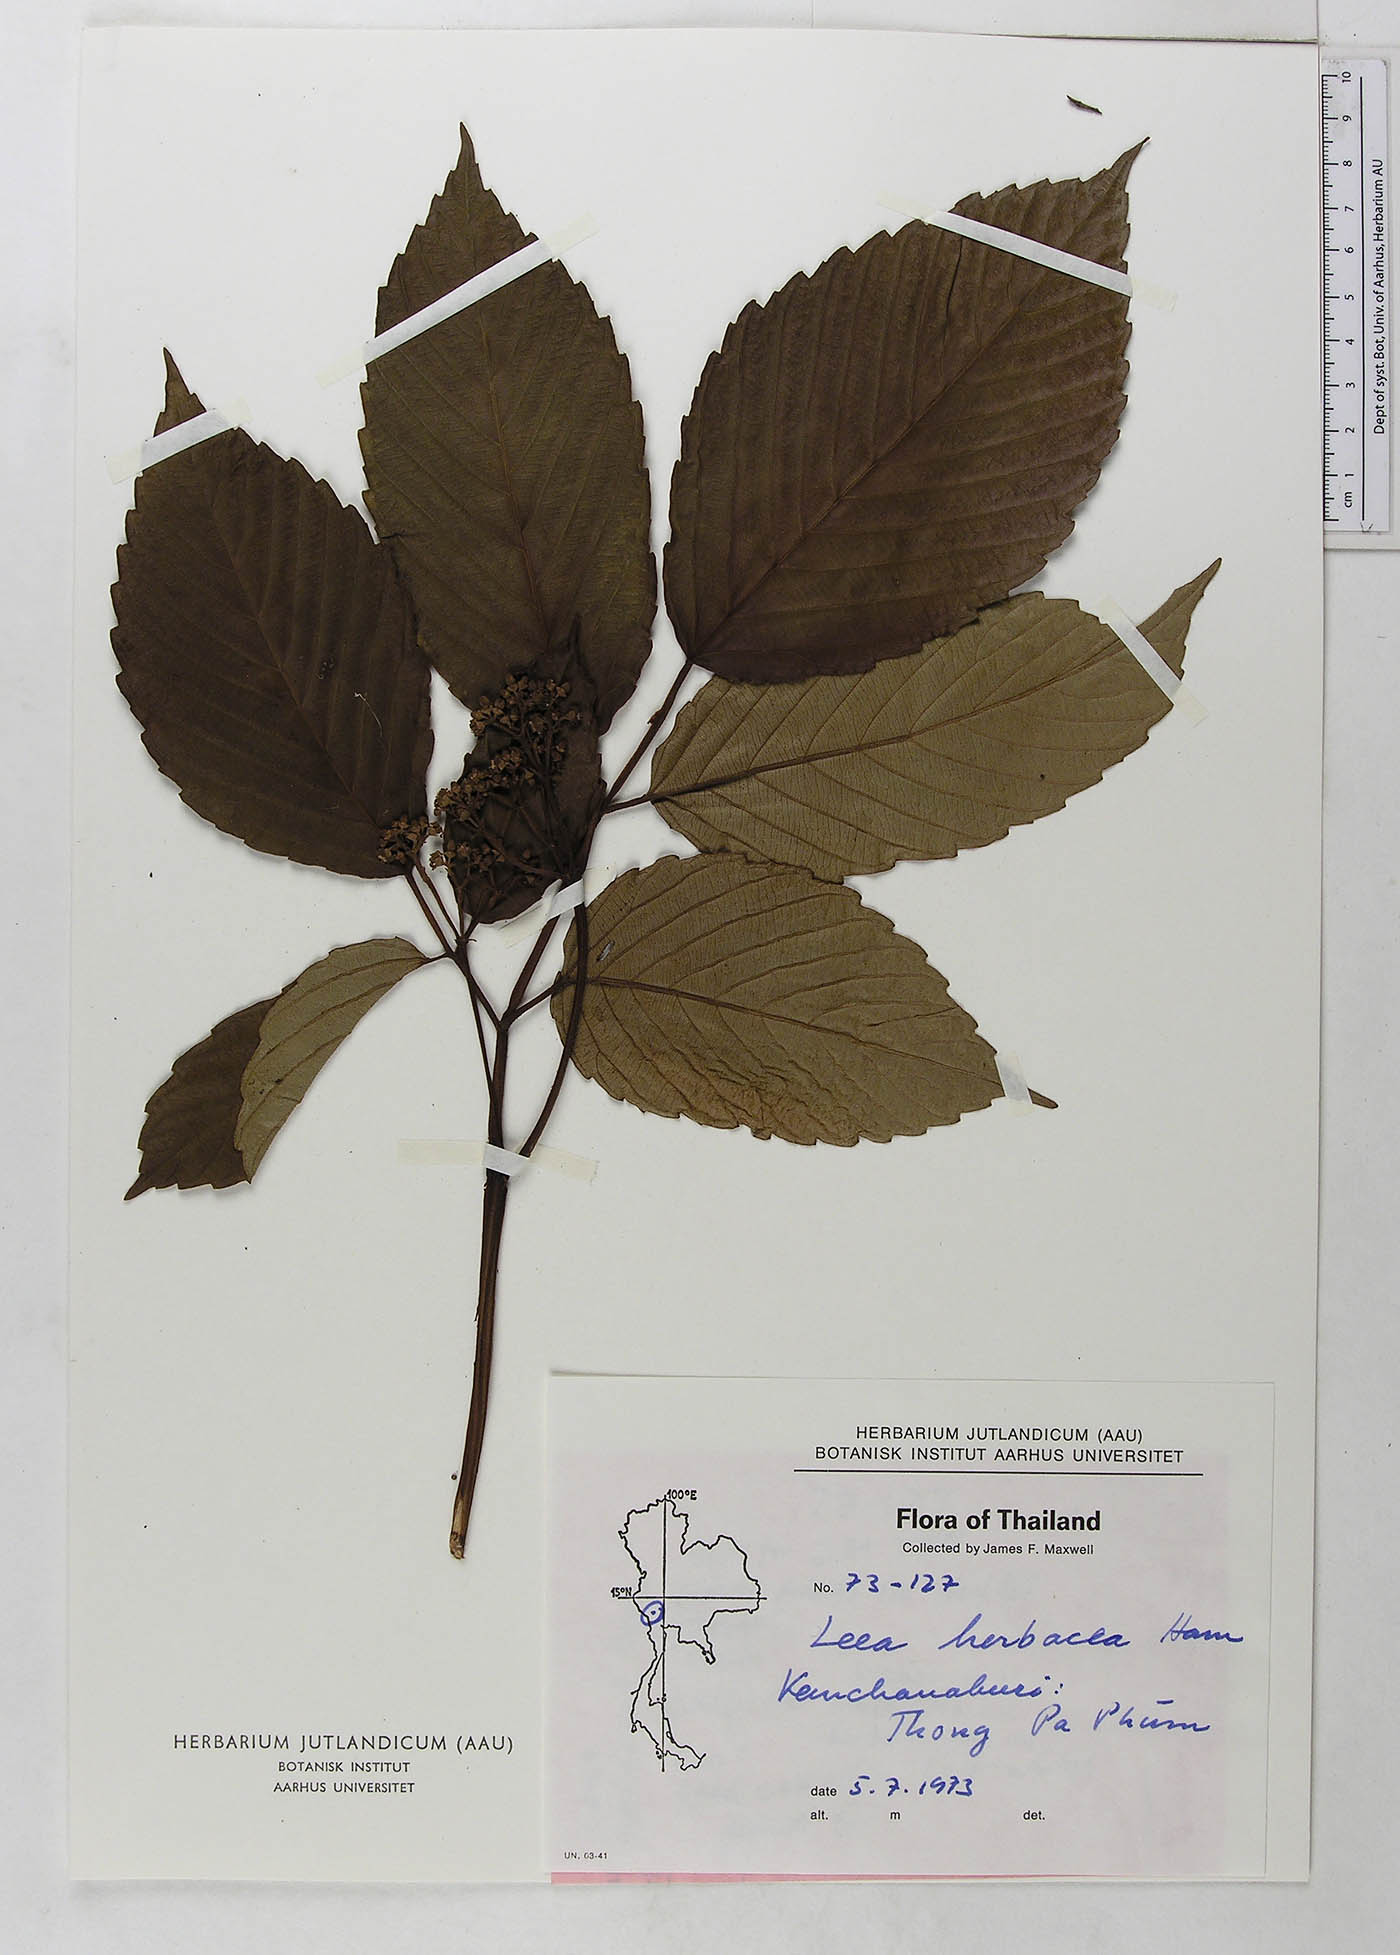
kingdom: Plantae
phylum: Tracheophyta
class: Magnoliopsida
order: Vitales
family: Vitaceae
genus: Leea
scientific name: Leea asiatica
